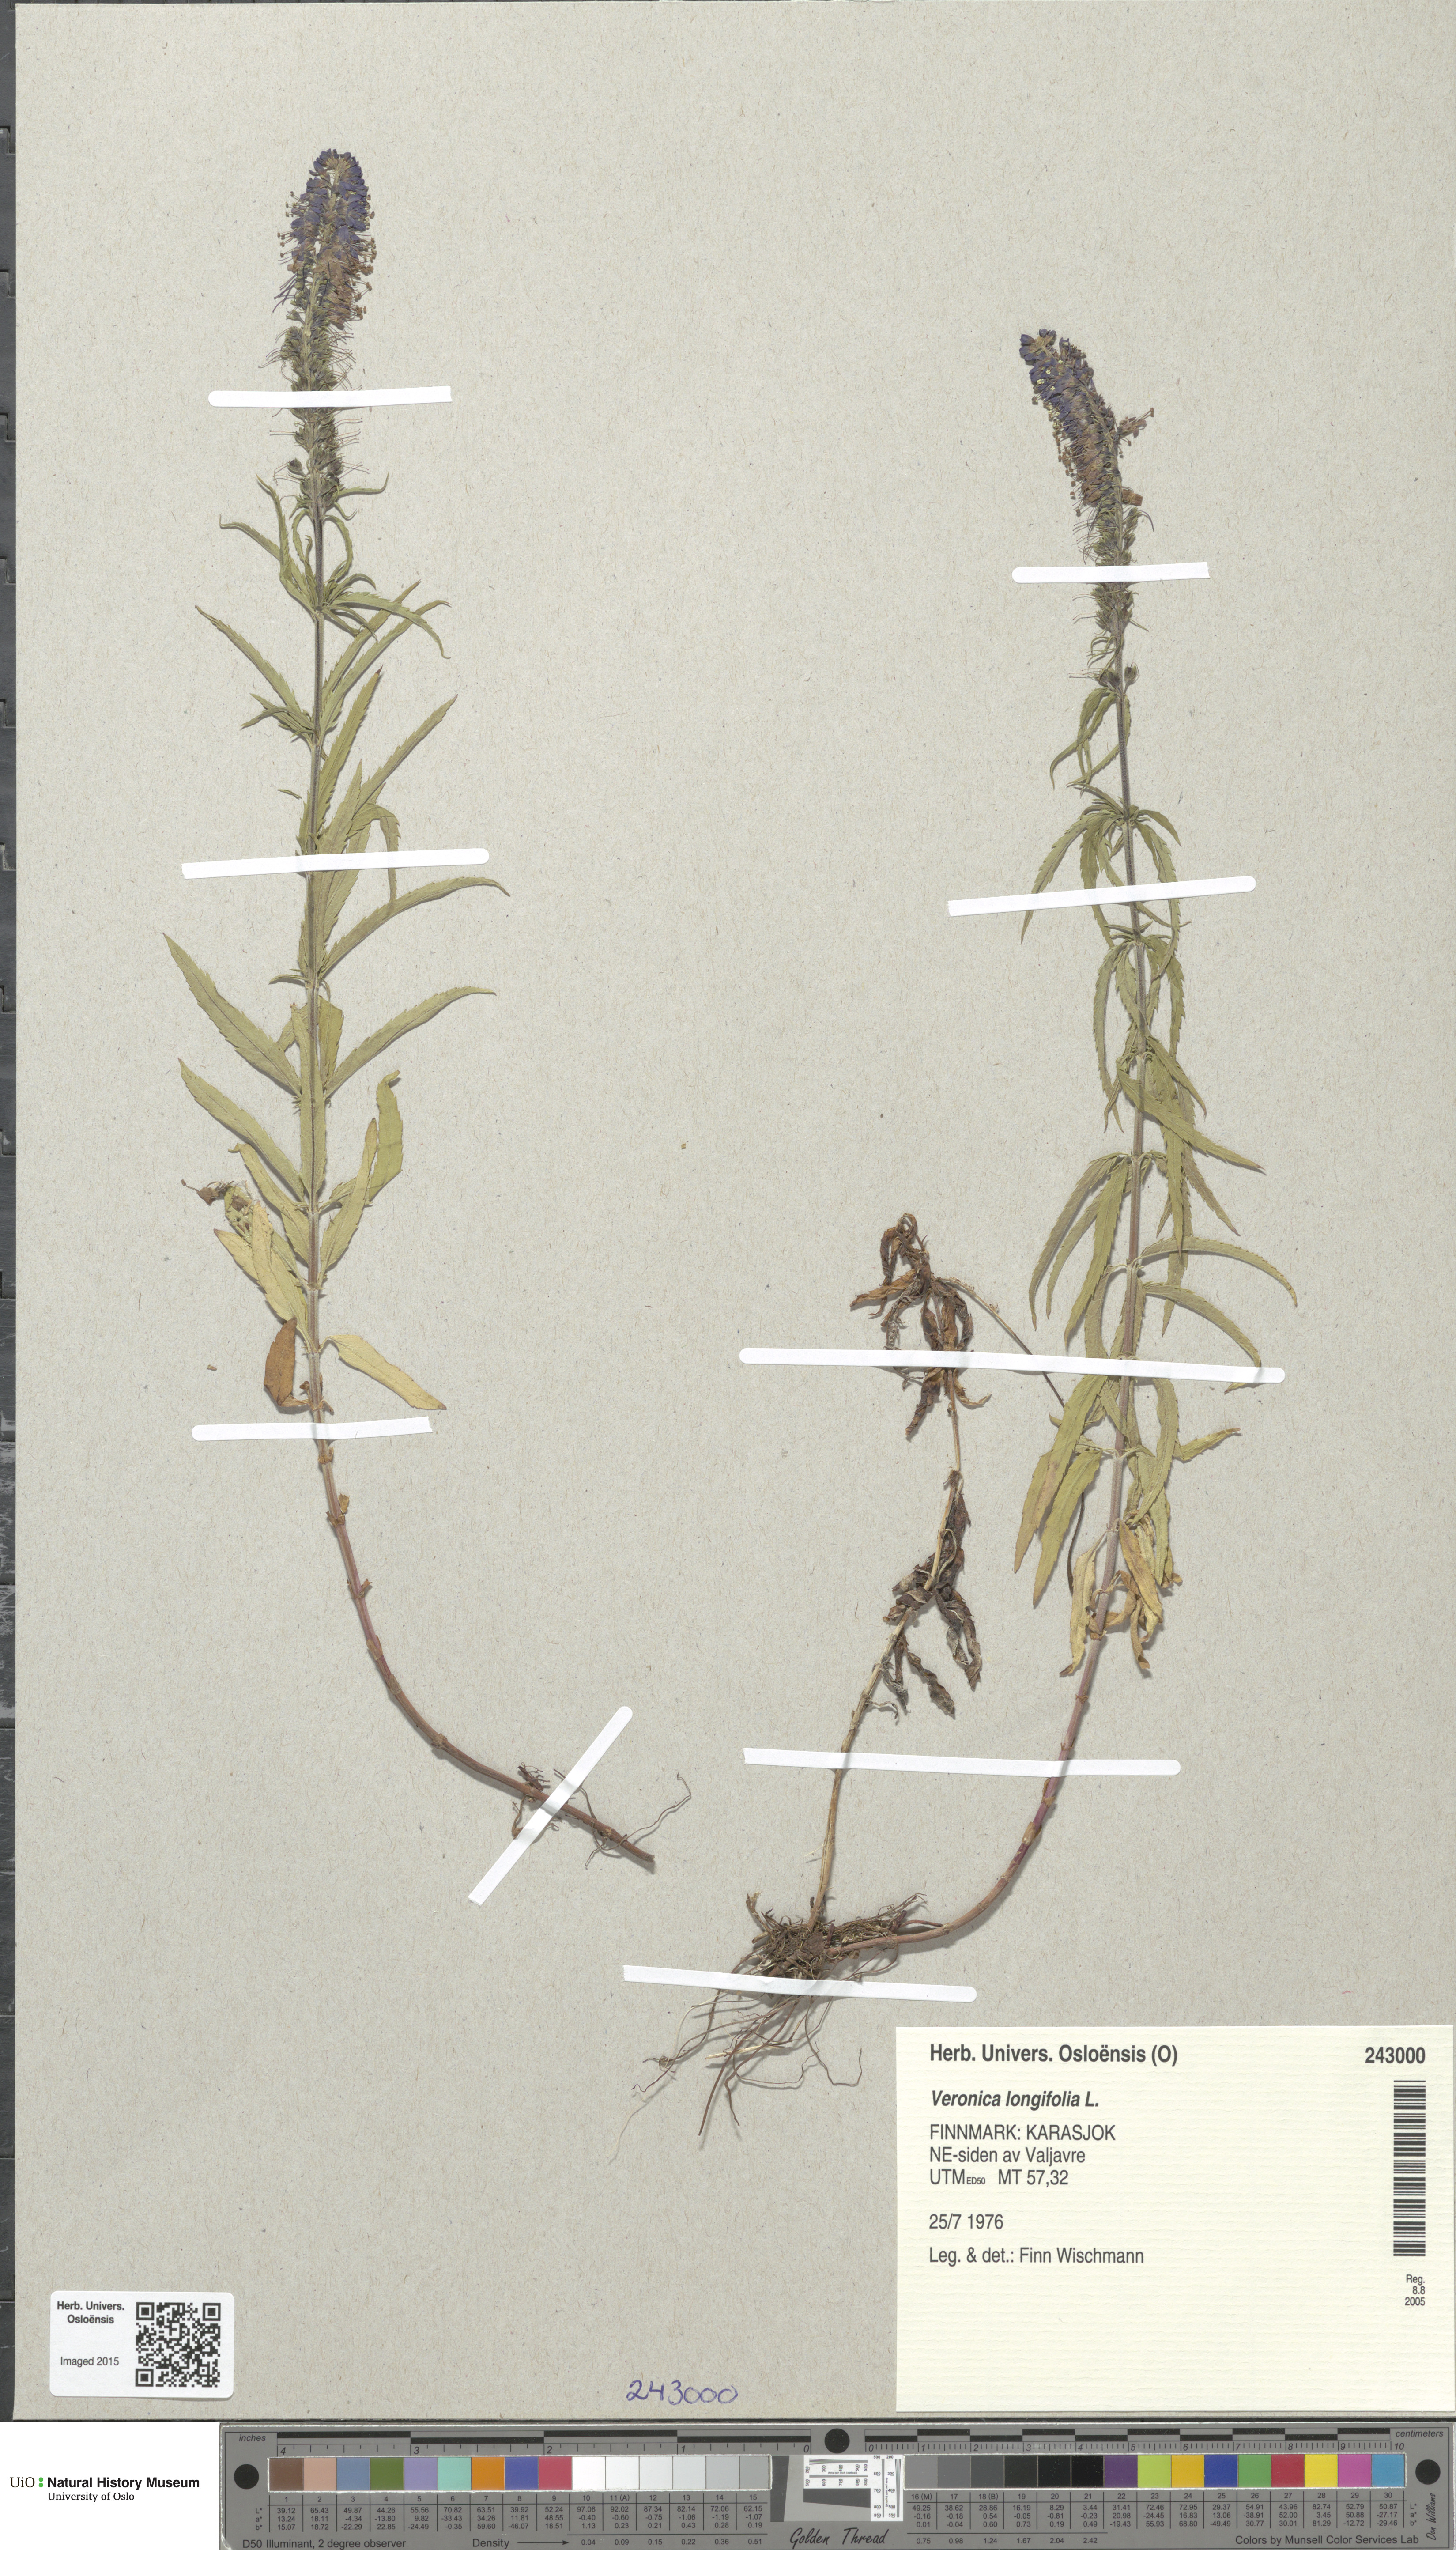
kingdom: Plantae
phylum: Tracheophyta
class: Magnoliopsida
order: Lamiales
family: Plantaginaceae
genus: Veronica
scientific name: Veronica longifolia
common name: Garden speedwell
